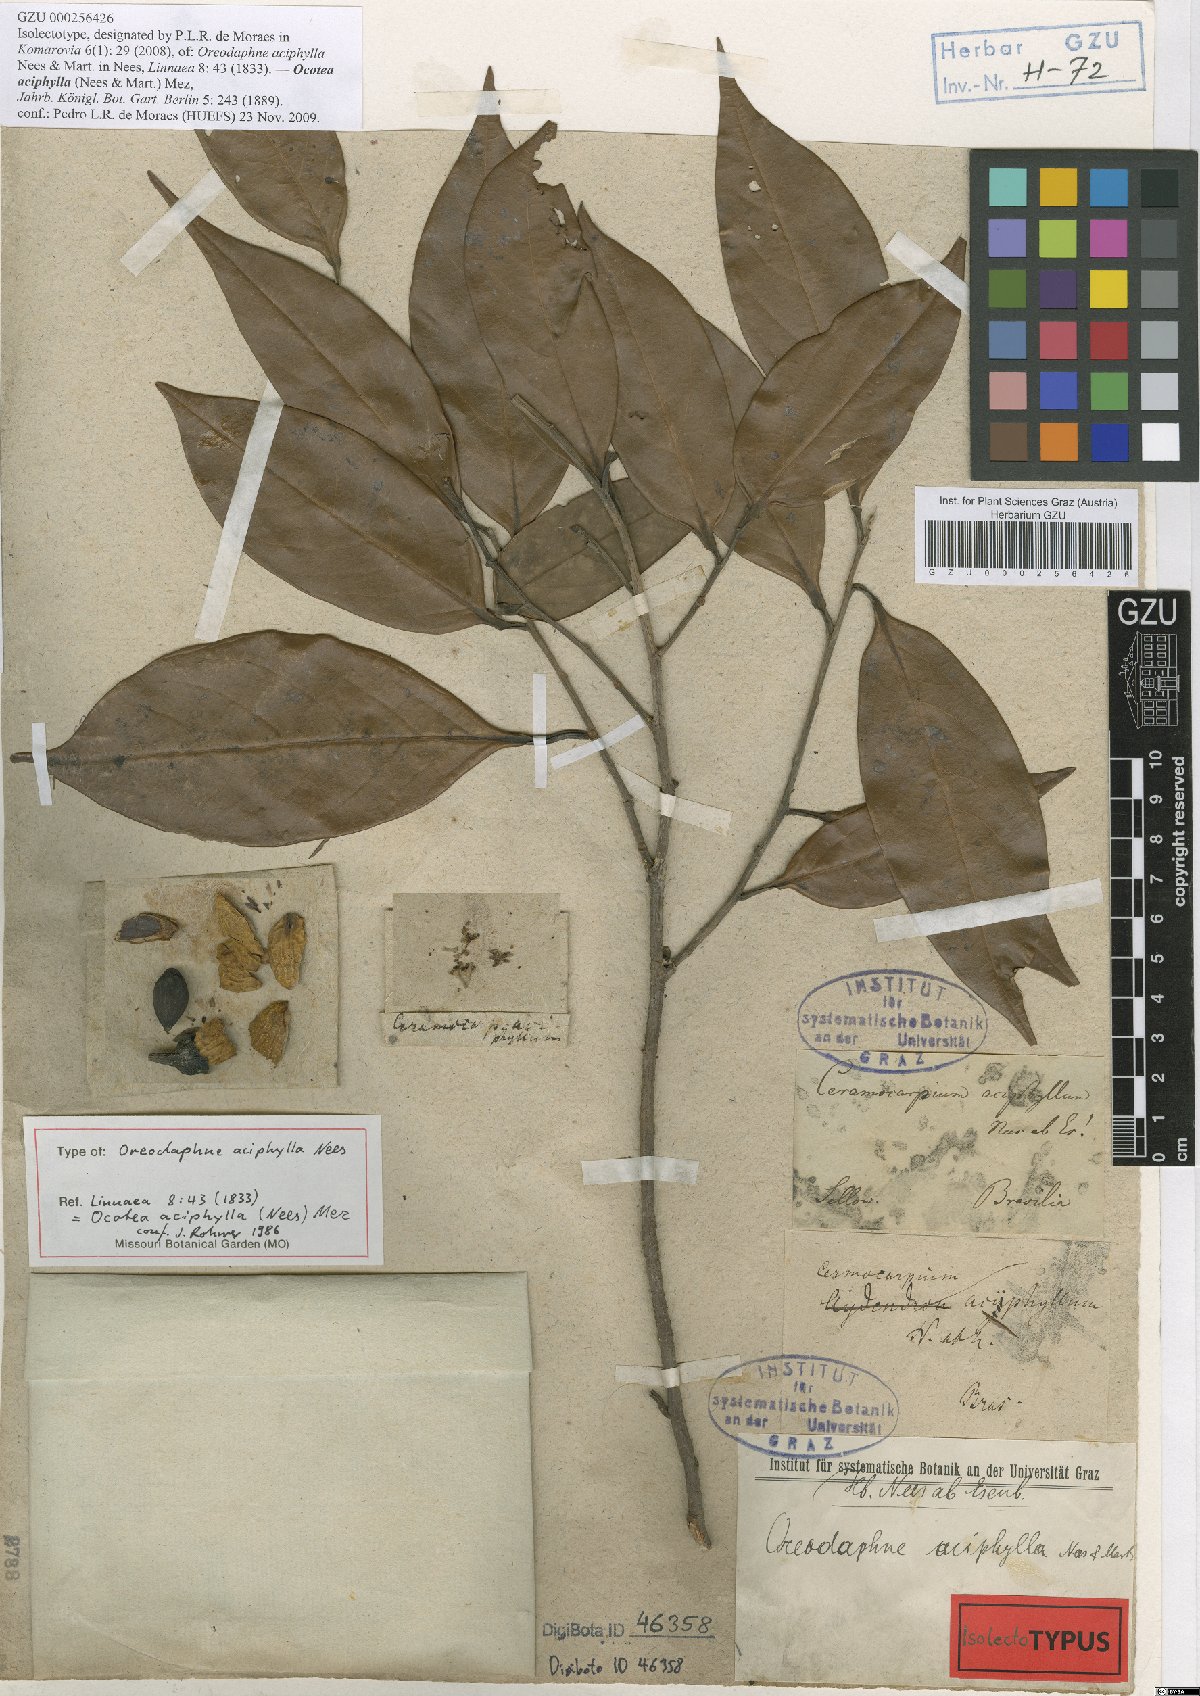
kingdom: Plantae
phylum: Tracheophyta
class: Magnoliopsida
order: Laurales
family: Lauraceae
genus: Ocotea
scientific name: Ocotea aciphylla
